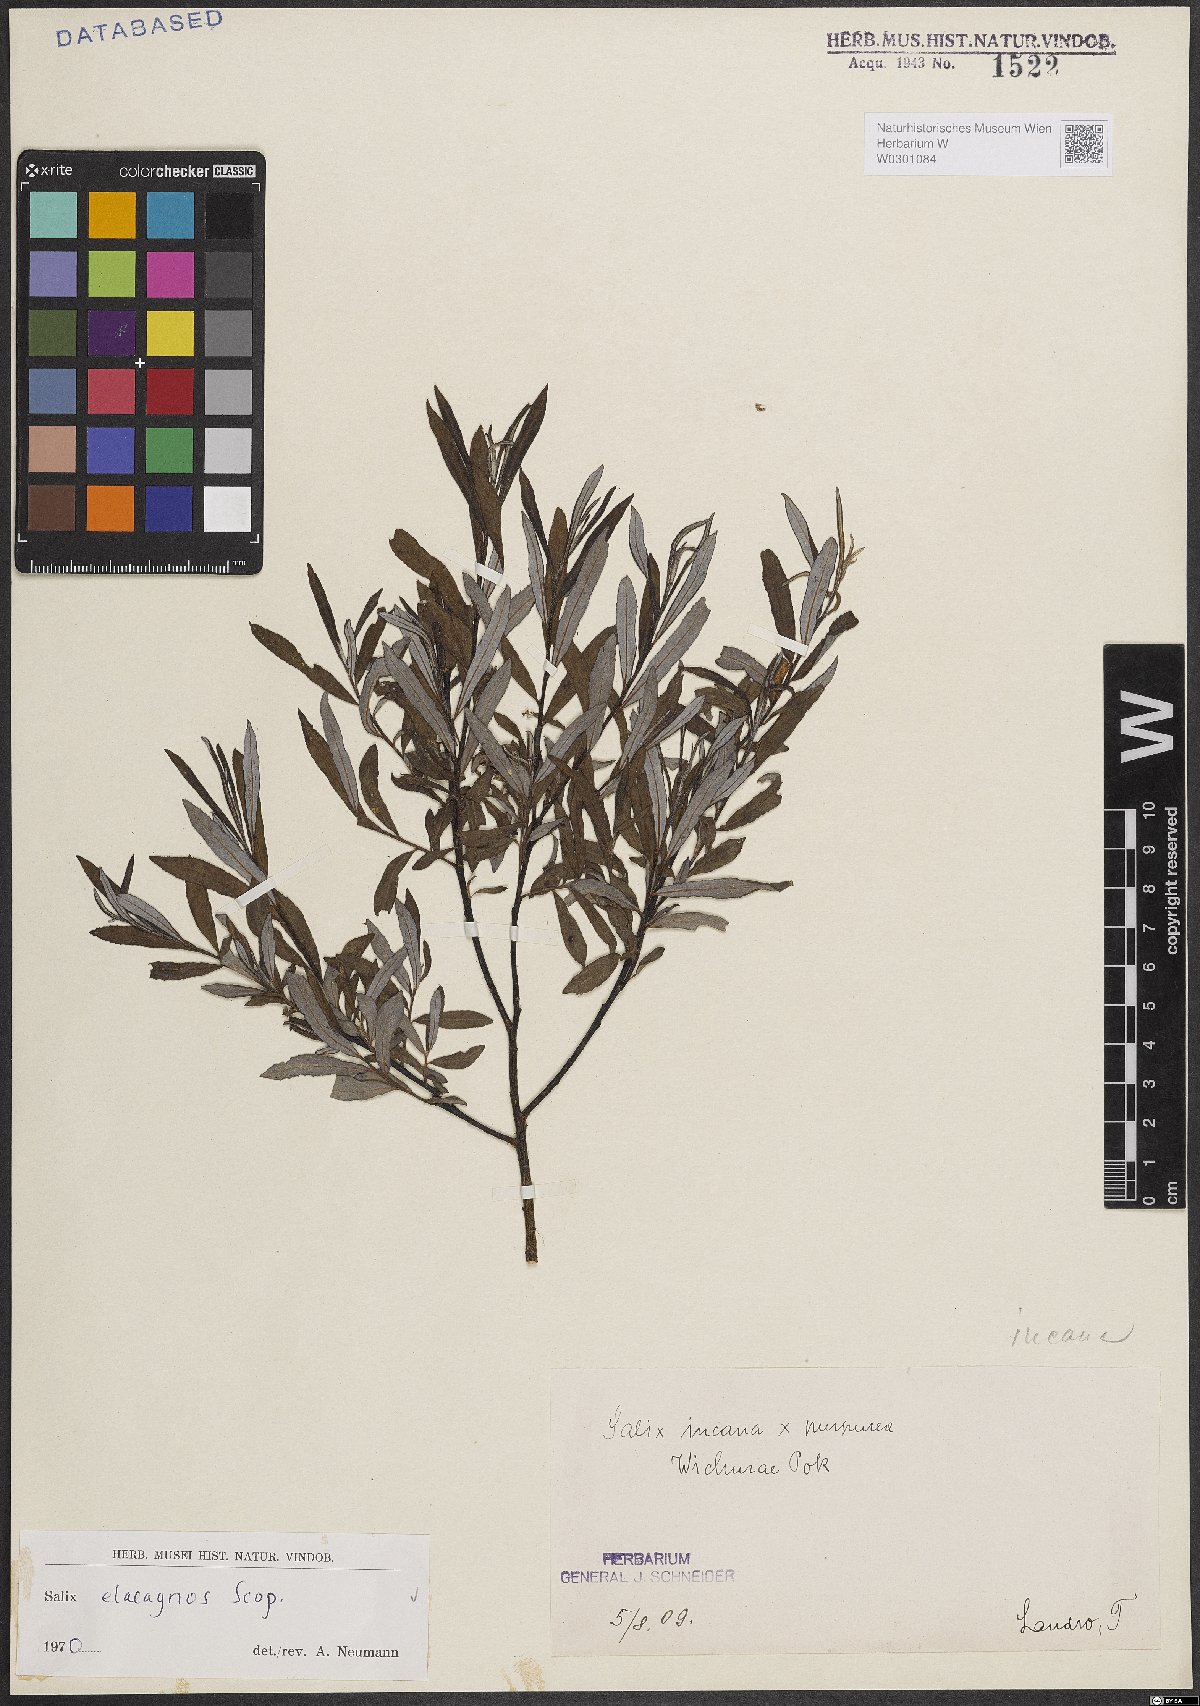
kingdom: Plantae
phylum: Tracheophyta
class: Magnoliopsida
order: Malpighiales
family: Salicaceae
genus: Salix
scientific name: Salix eleagnos
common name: Elaeagnus willow
